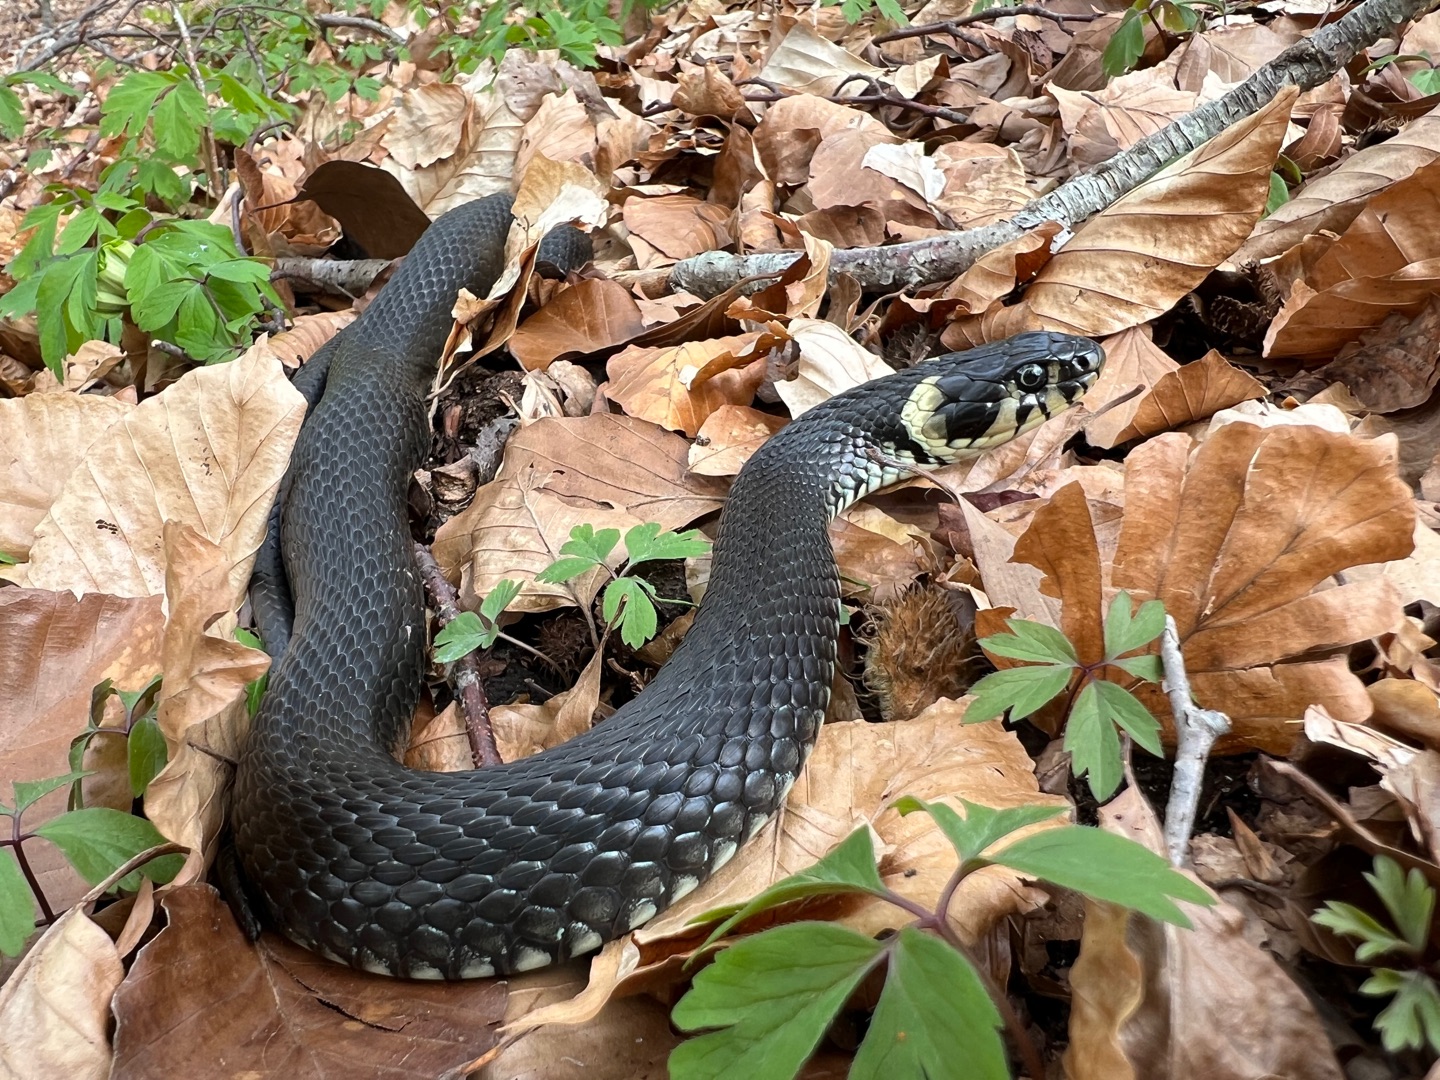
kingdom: Animalia
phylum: Chordata
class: Squamata
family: Colubridae
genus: Natrix
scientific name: Natrix natrix
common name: Snog
